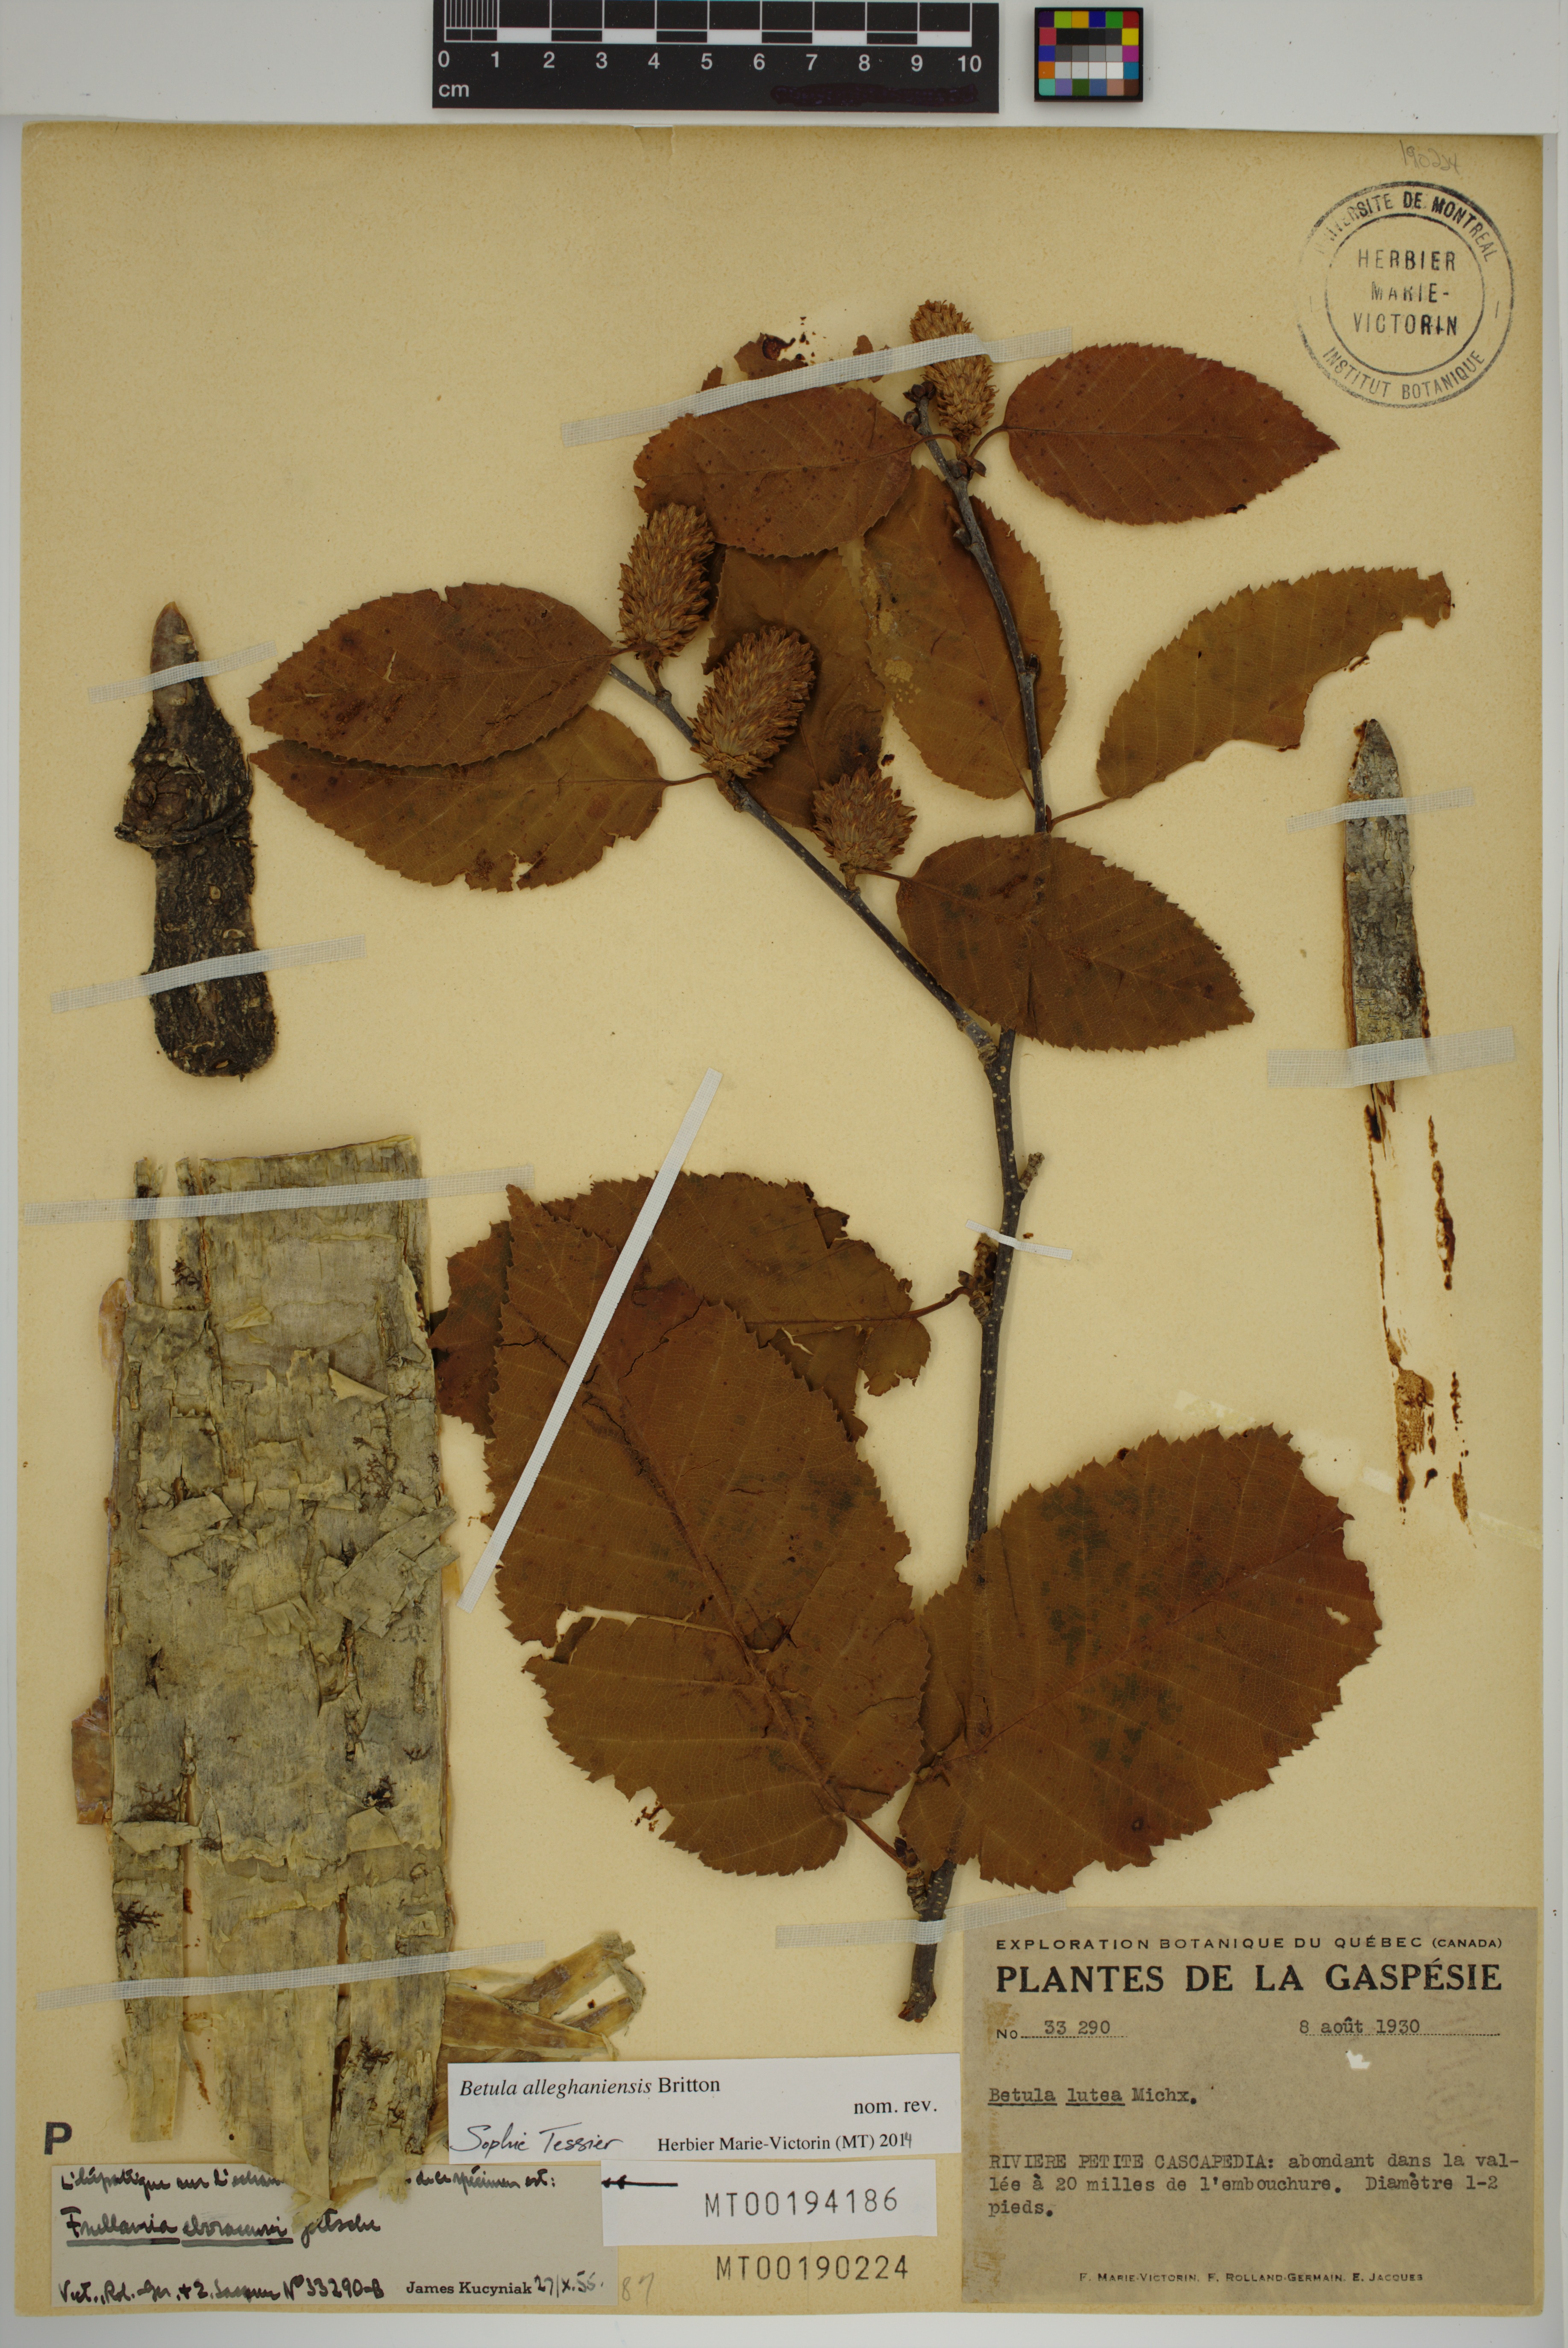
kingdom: Plantae
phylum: Tracheophyta
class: Magnoliopsida
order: Fagales
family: Betulaceae
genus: Betula
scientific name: Betula alleghaniensis
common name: Yellow birch
